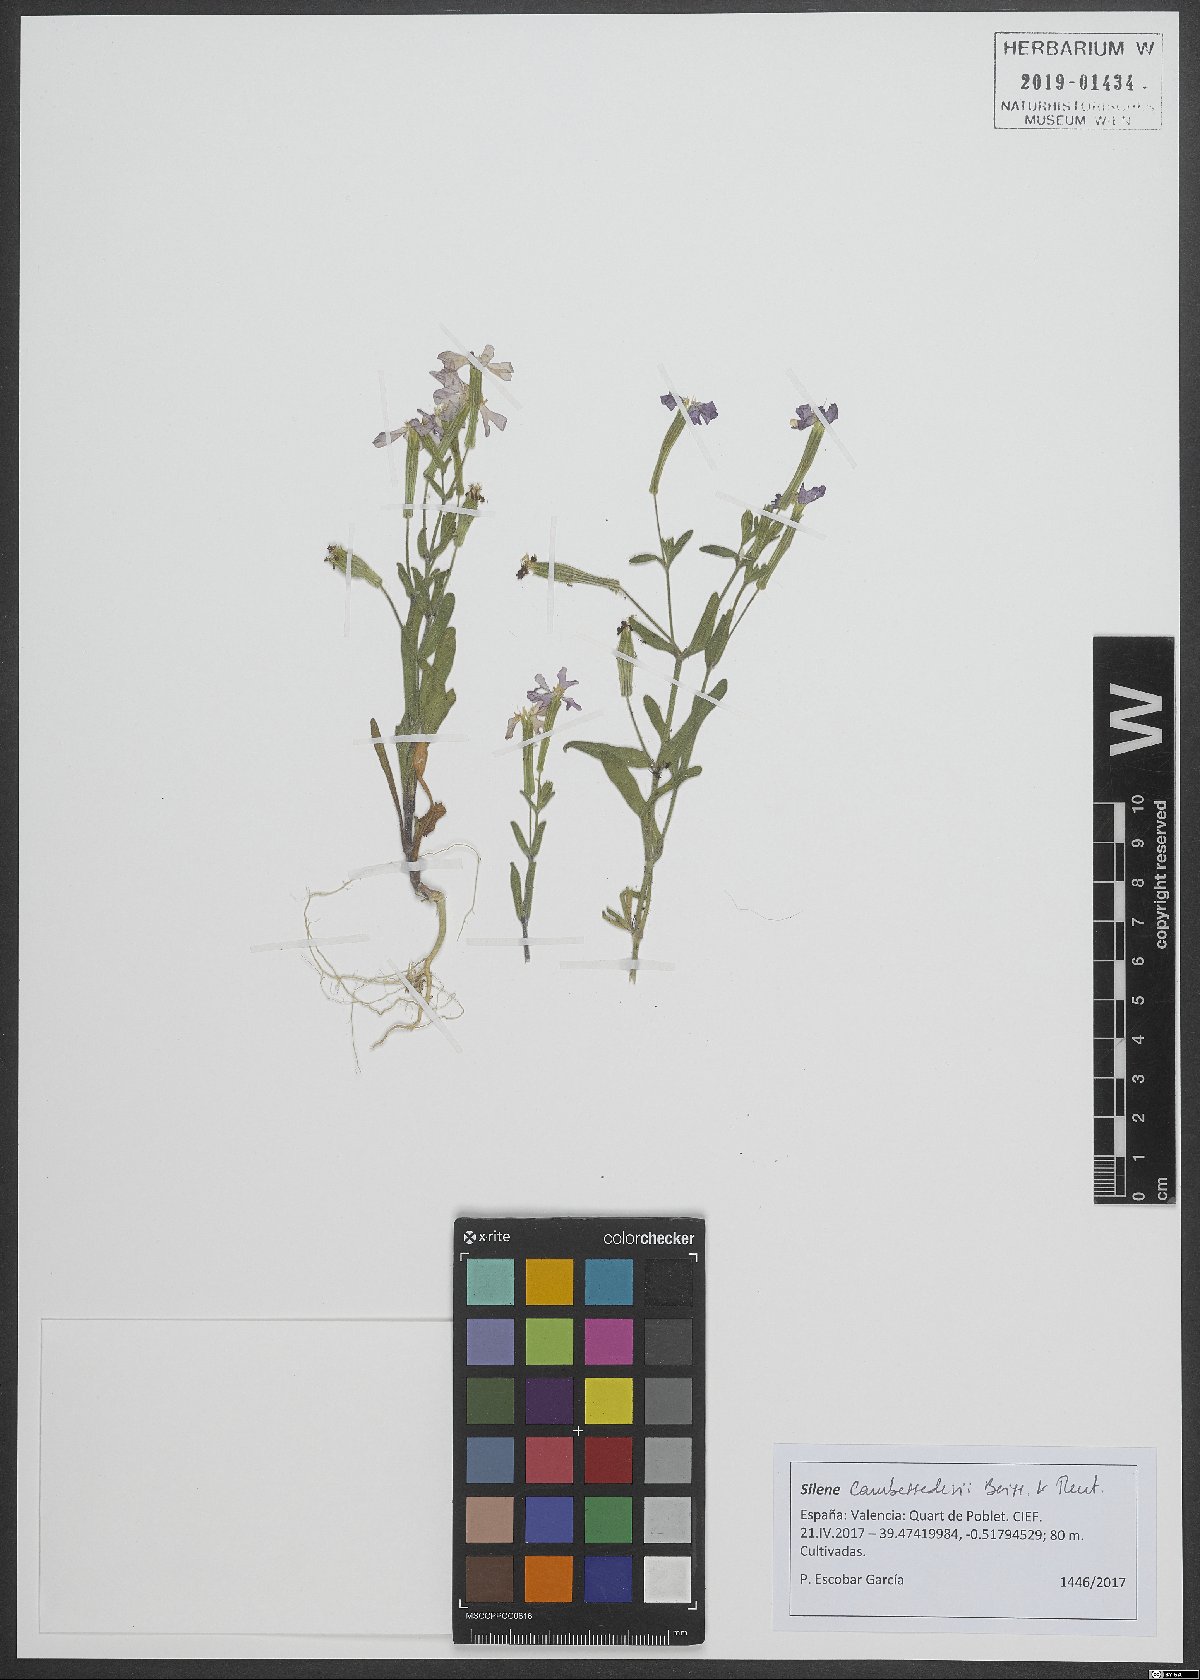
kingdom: Plantae
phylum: Tracheophyta
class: Magnoliopsida
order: Caryophyllales
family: Caryophyllaceae
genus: Silene
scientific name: Silene cambessedesii
